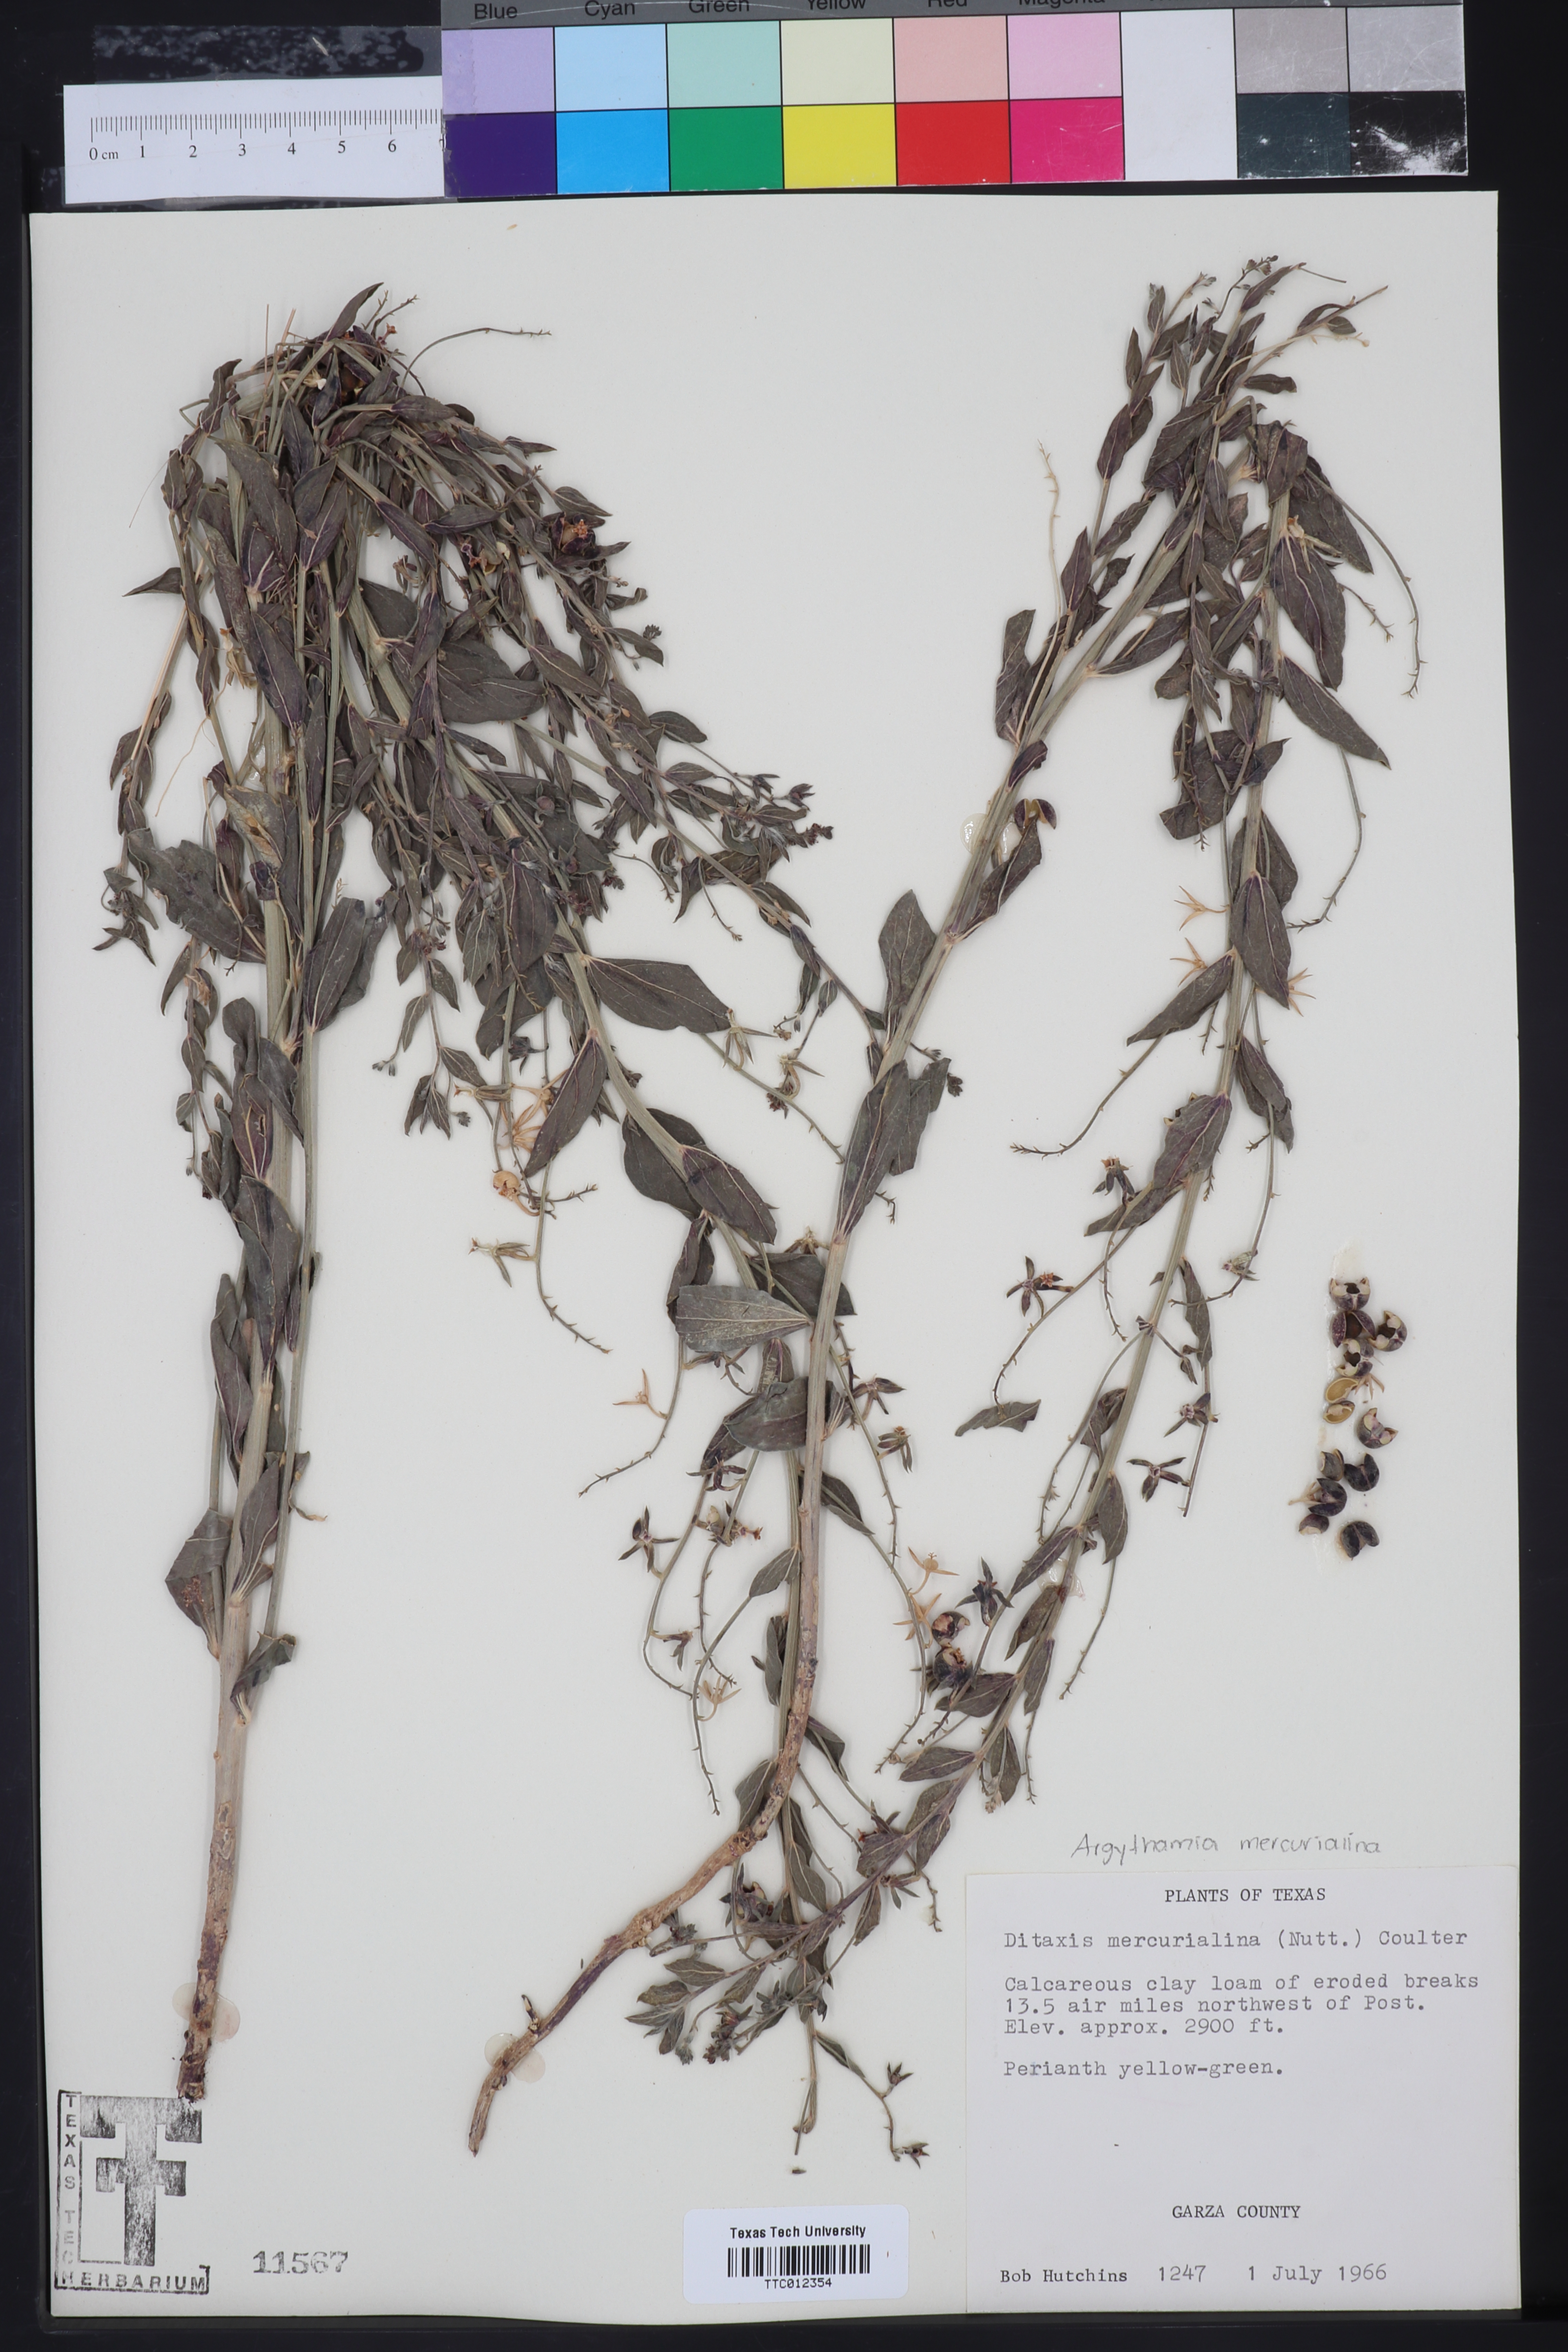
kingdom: Plantae
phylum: Tracheophyta
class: Magnoliopsida
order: Malpighiales
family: Euphorbiaceae
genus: Ditaxis
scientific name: Ditaxis mercurialina
